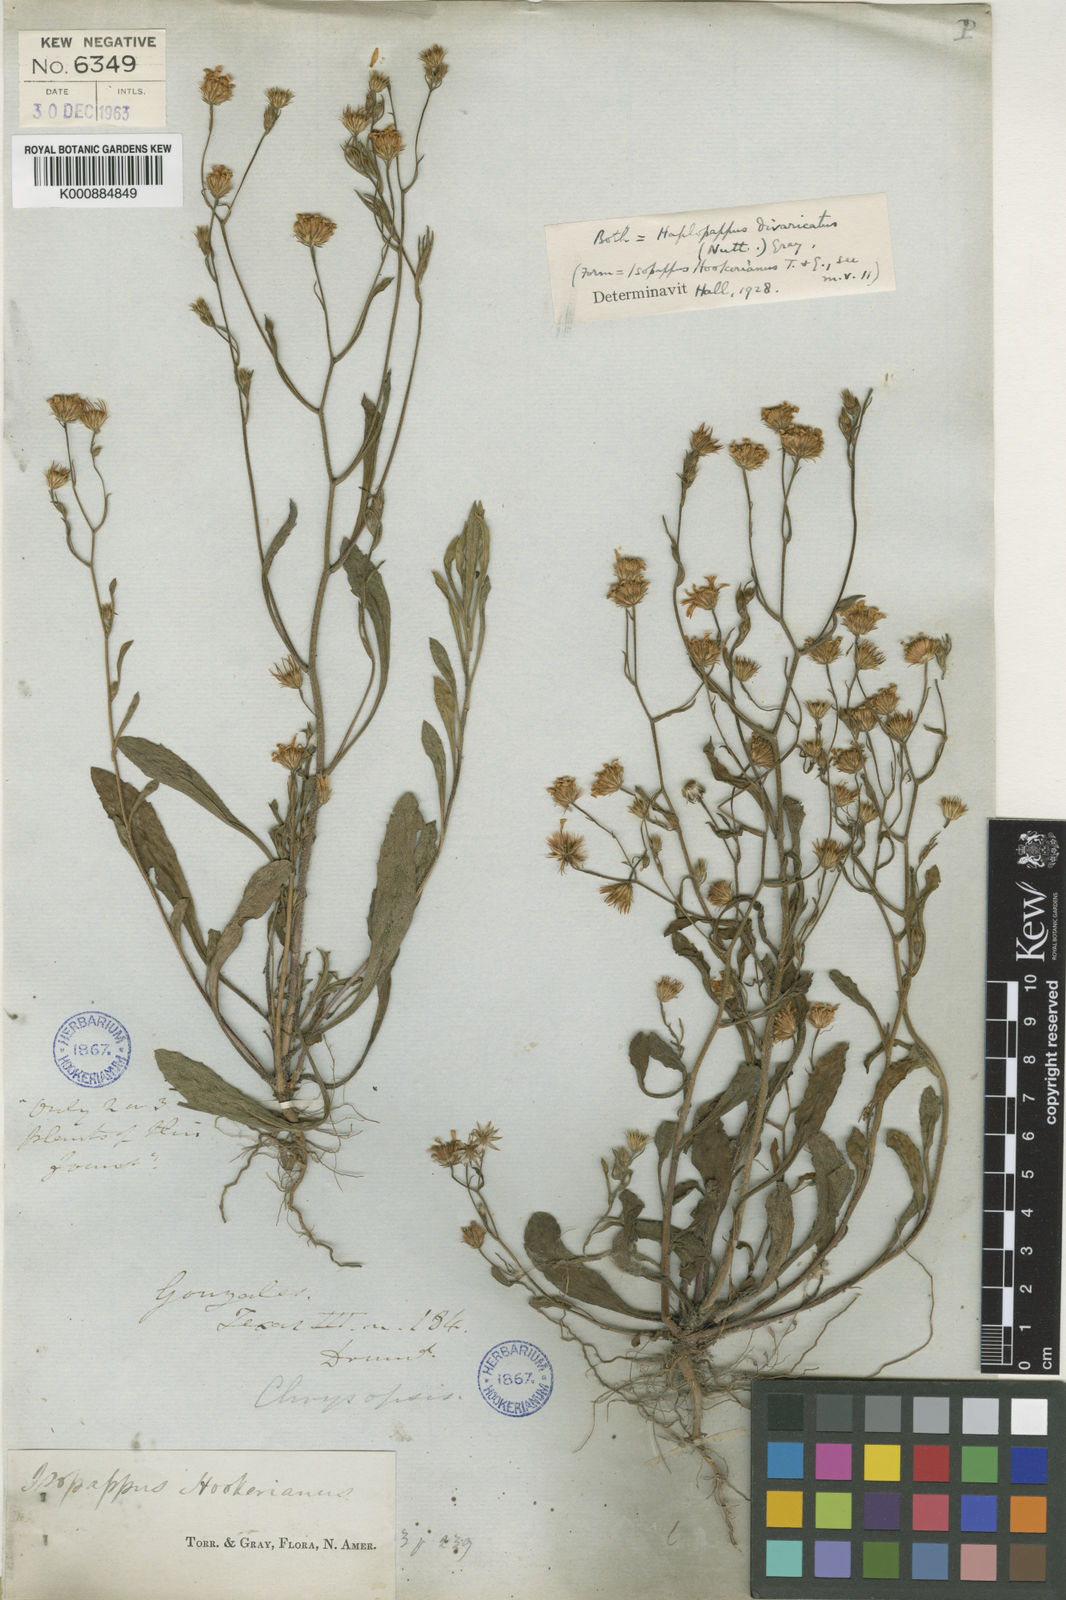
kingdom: Plantae
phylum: Tracheophyta
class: Magnoliopsida
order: Asterales
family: Asteraceae
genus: Croptilon
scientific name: Croptilon divaricatum
